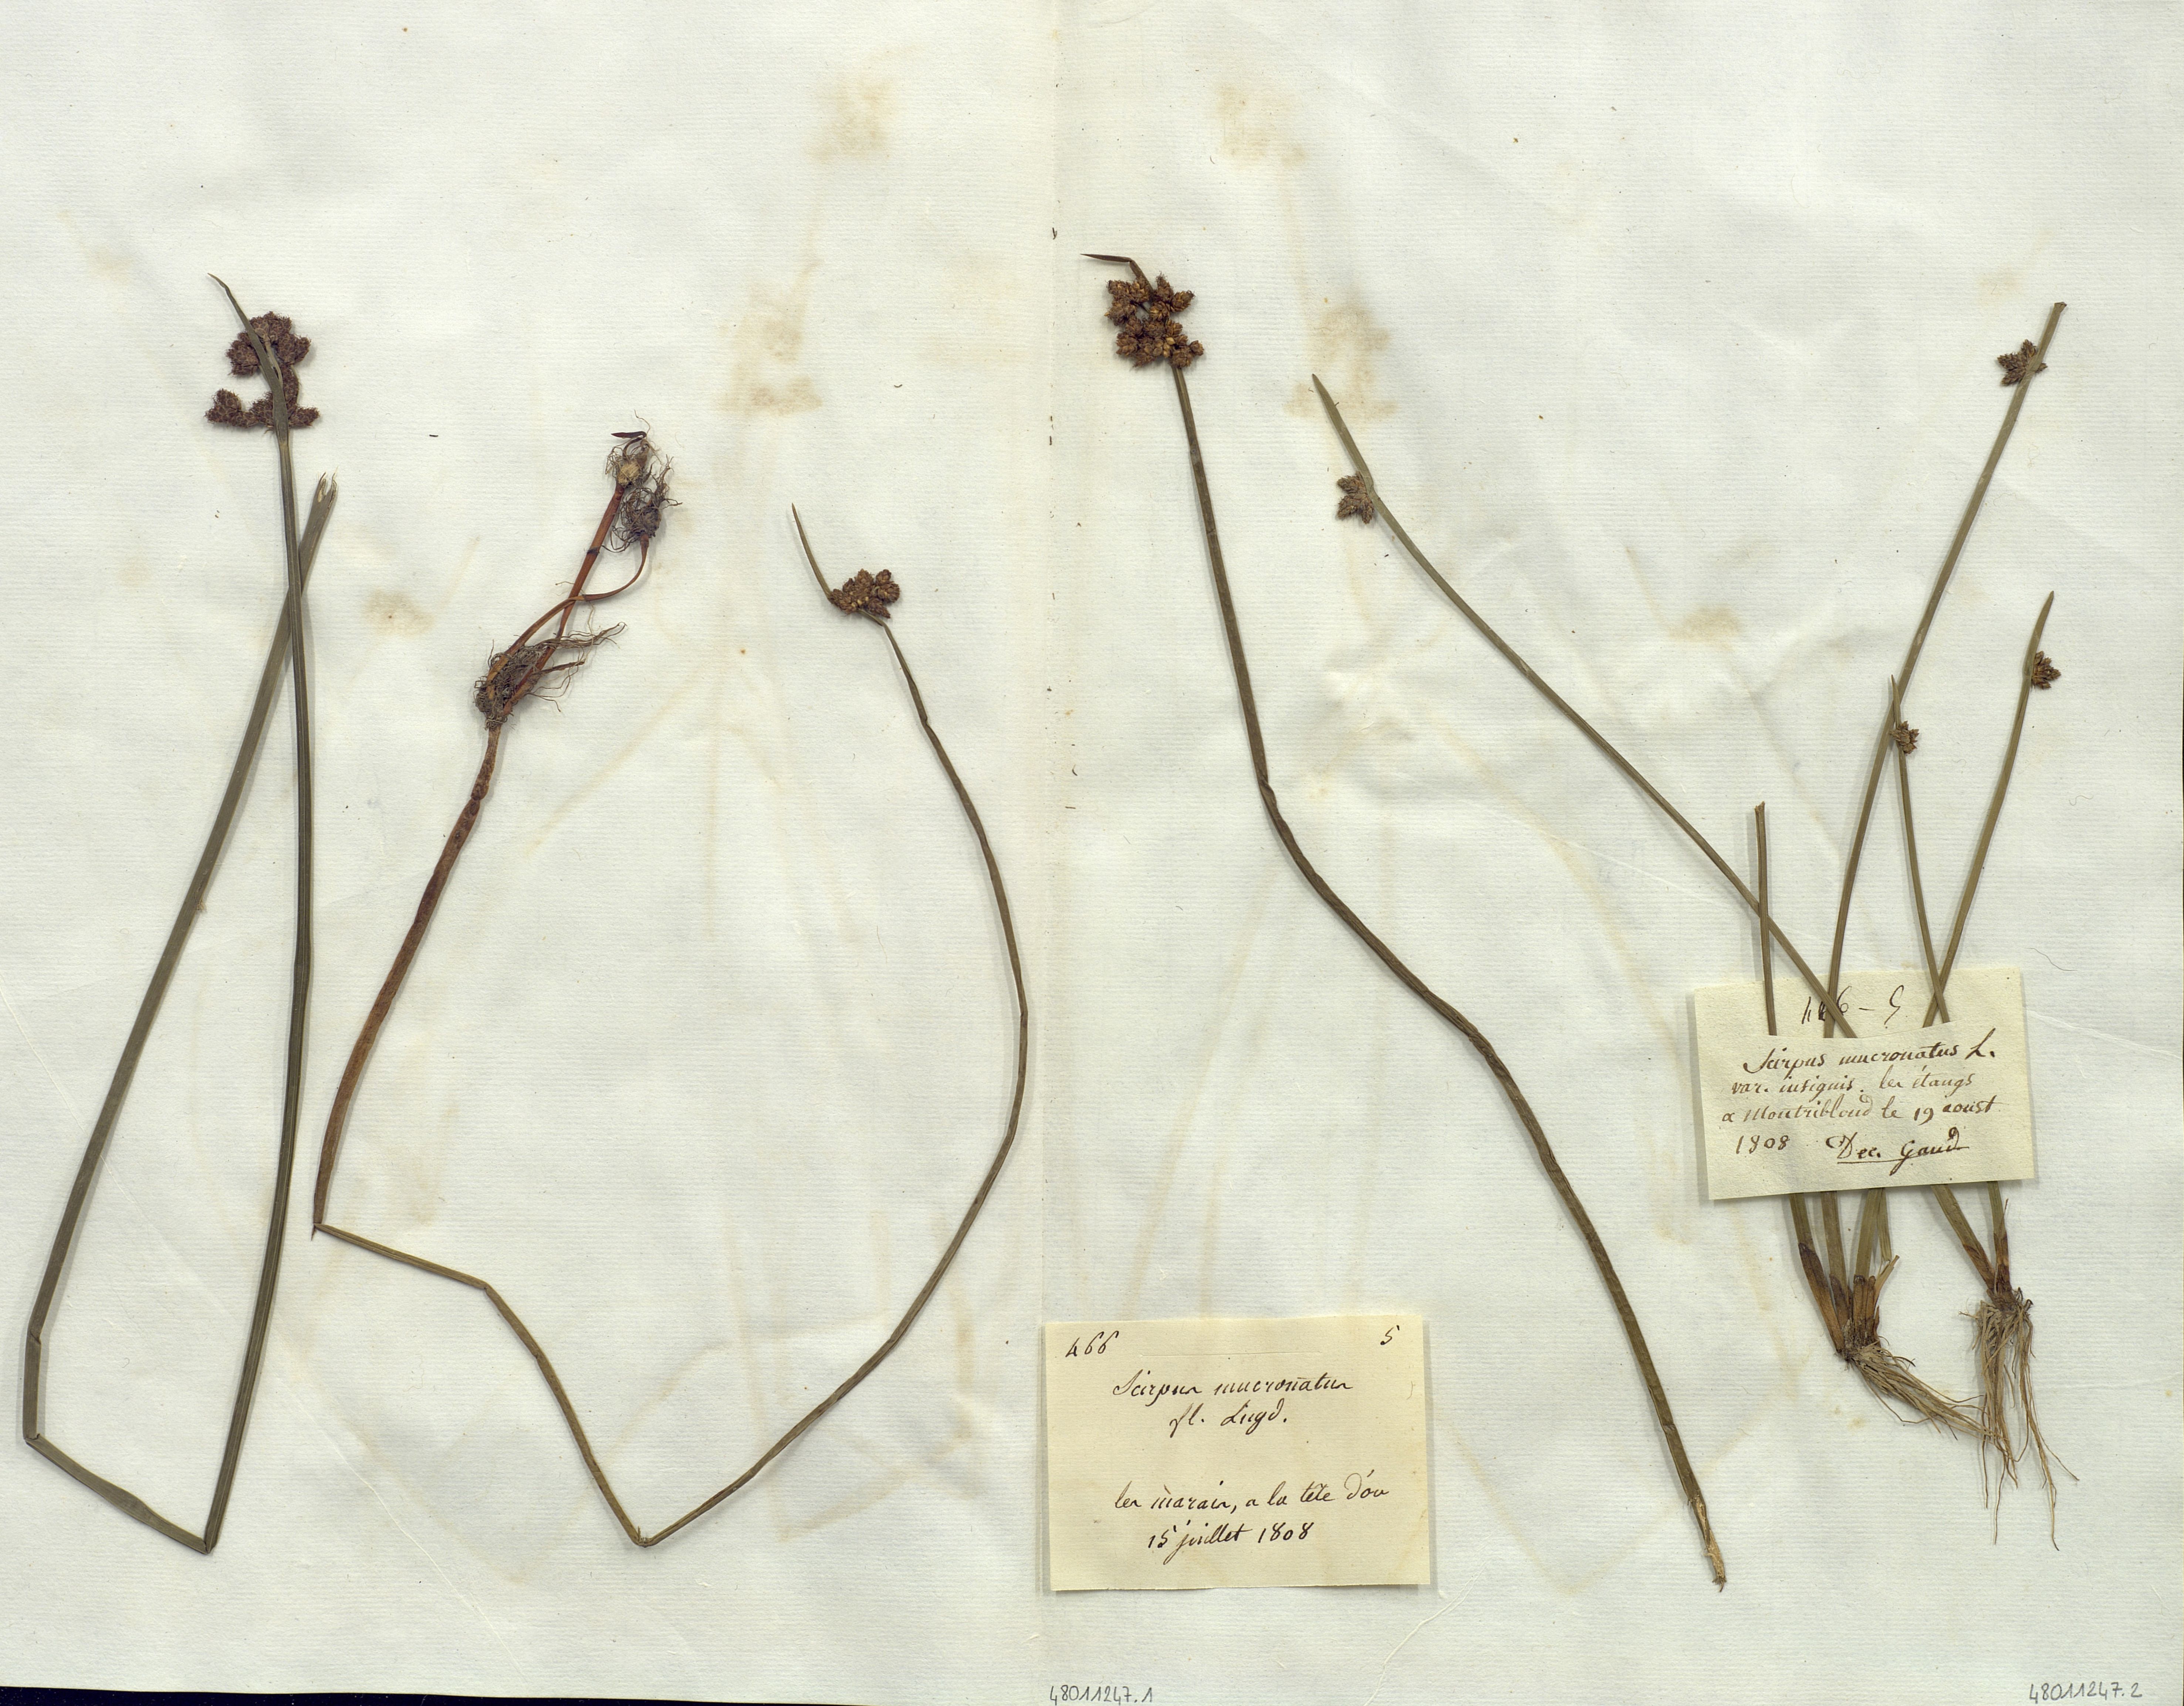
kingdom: Plantae
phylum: Tracheophyta
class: Liliopsida
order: Poales
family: Cyperaceae
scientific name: Cyperaceae
